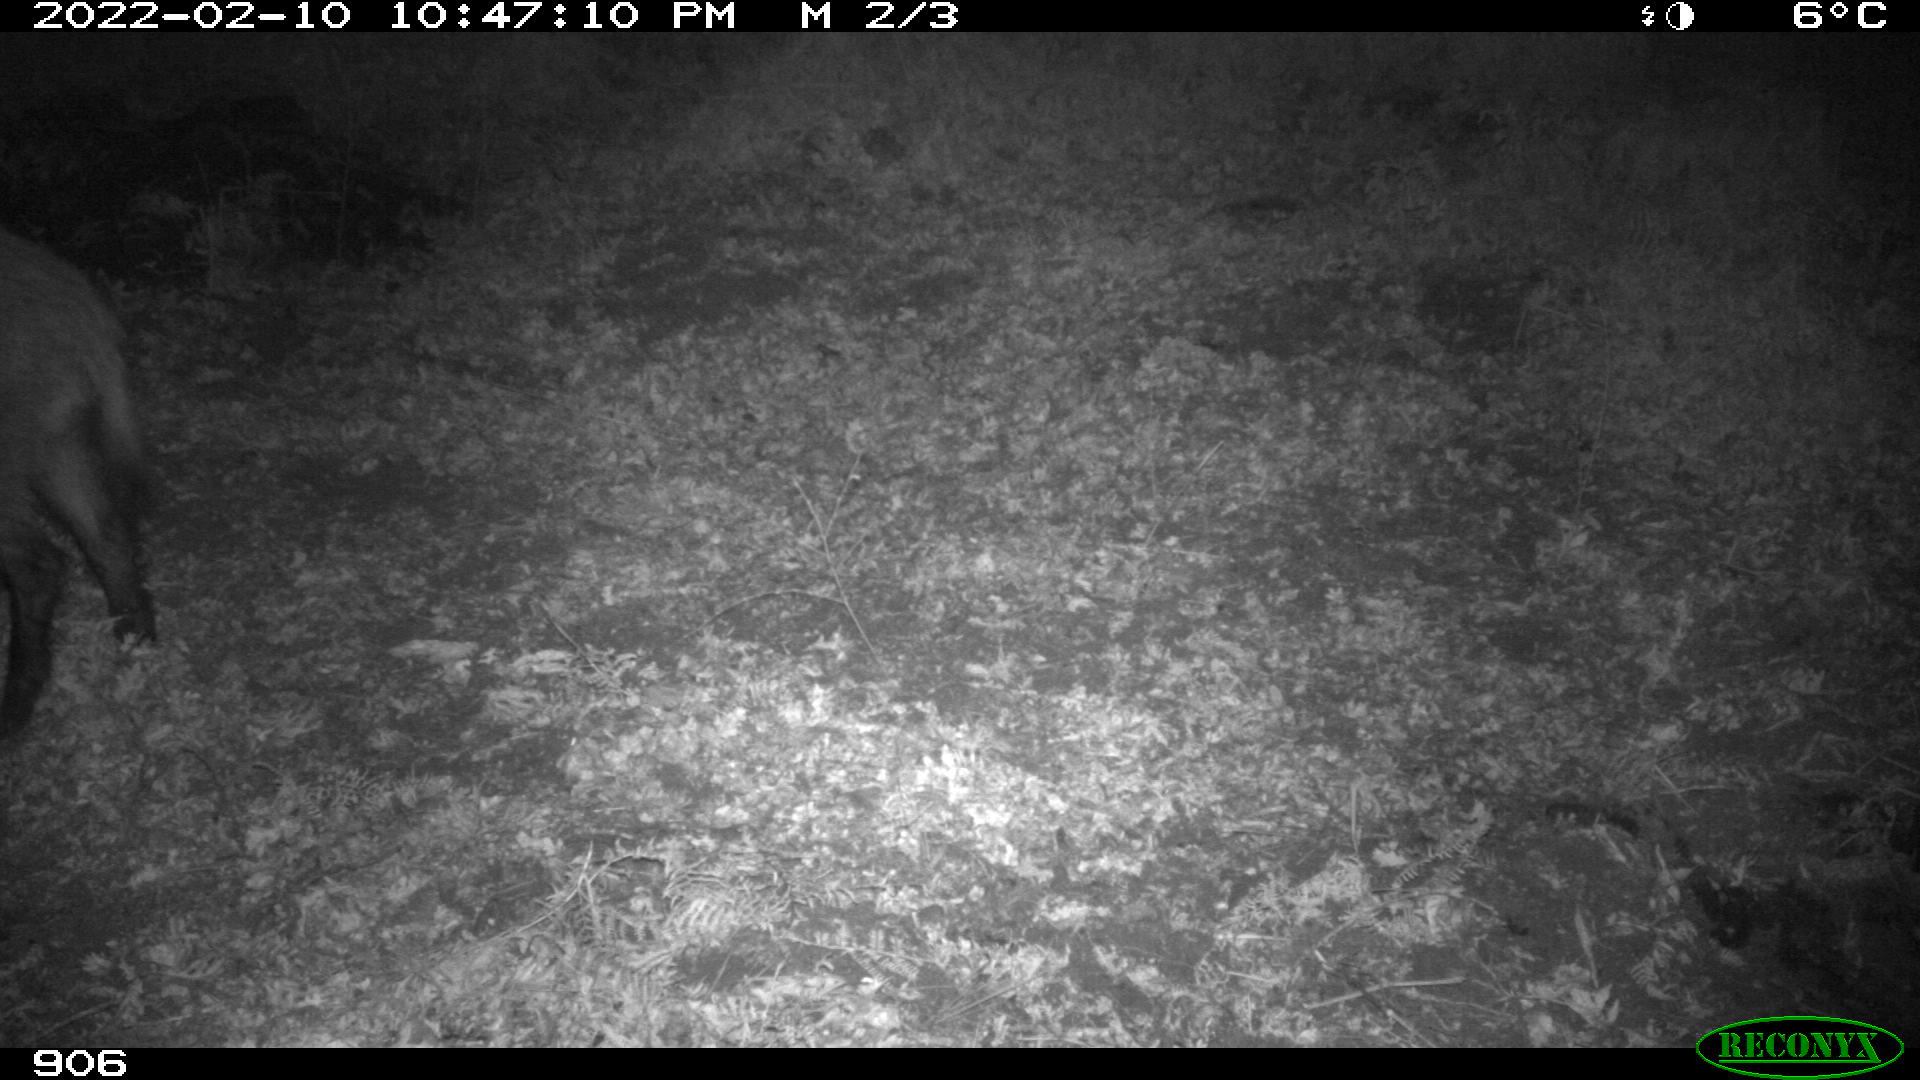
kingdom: Animalia
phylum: Chordata
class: Mammalia
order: Artiodactyla
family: Suidae
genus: Sus
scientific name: Sus scrofa
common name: Wild boar
